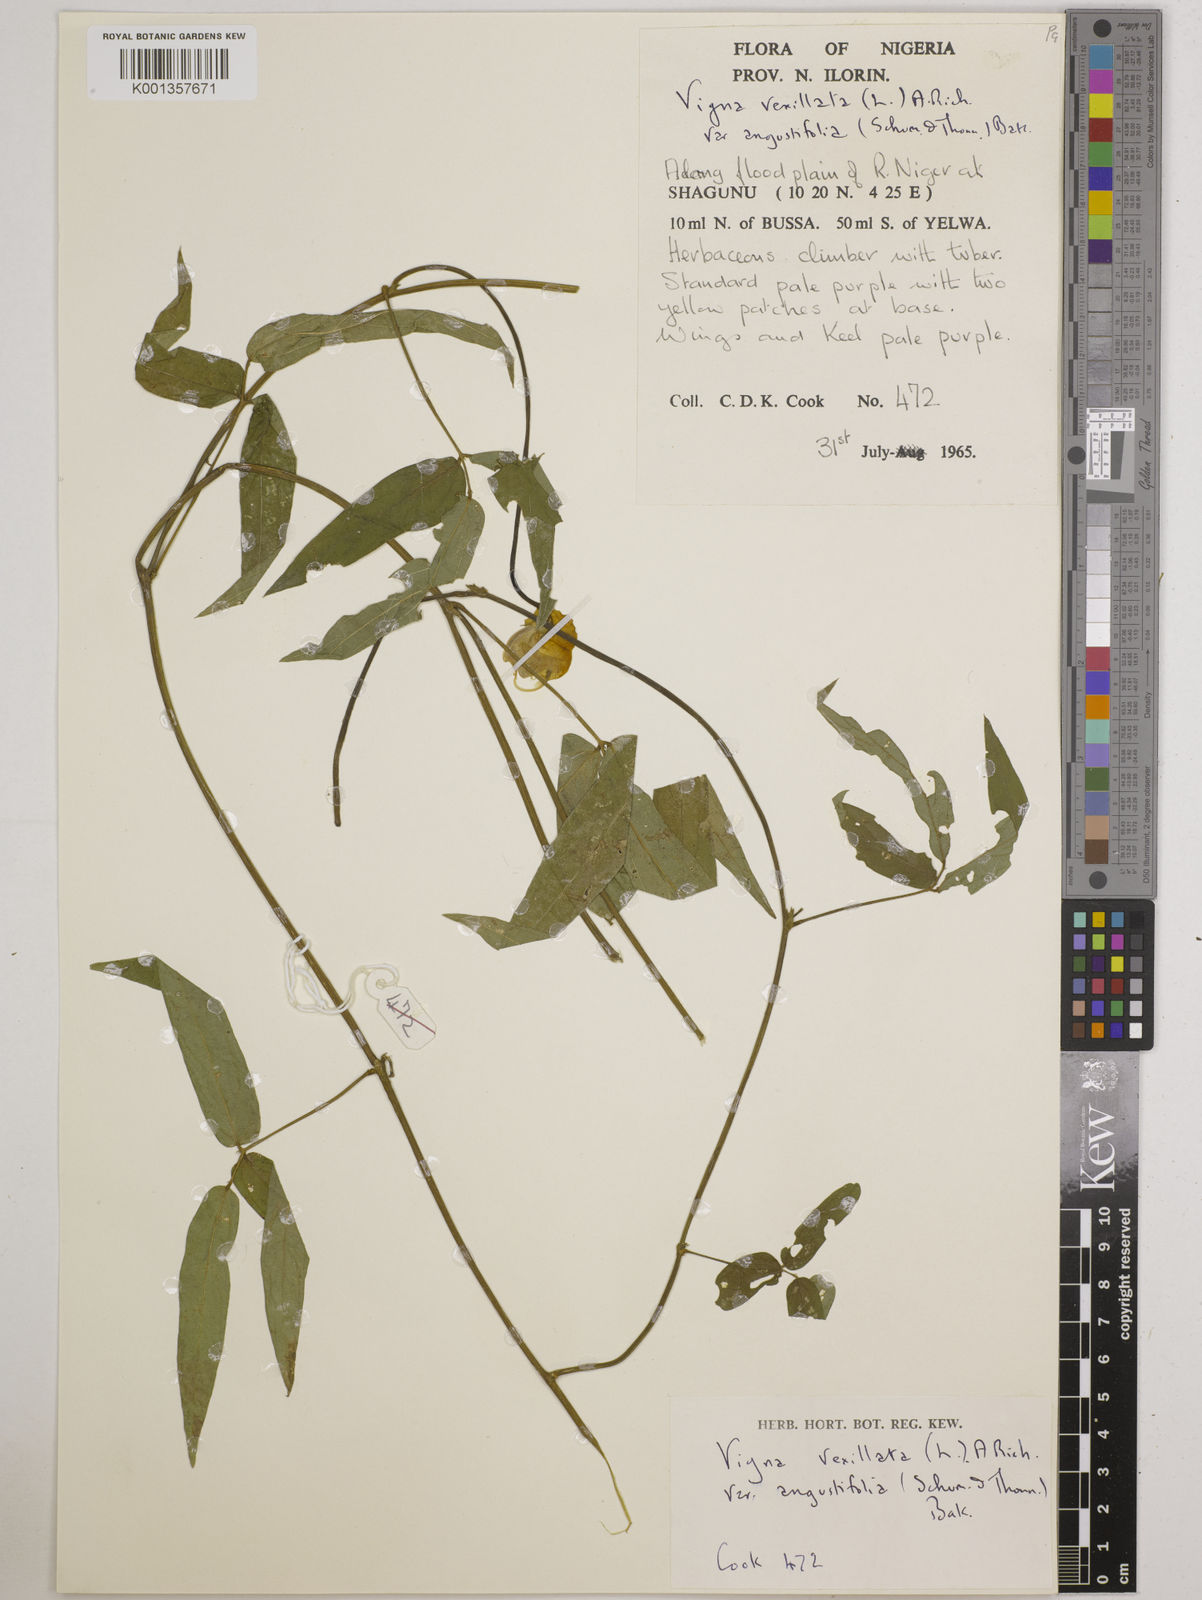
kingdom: Plantae
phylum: Tracheophyta
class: Magnoliopsida
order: Fabales
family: Fabaceae
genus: Vigna
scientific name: Vigna vexillata
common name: Zombi pea
